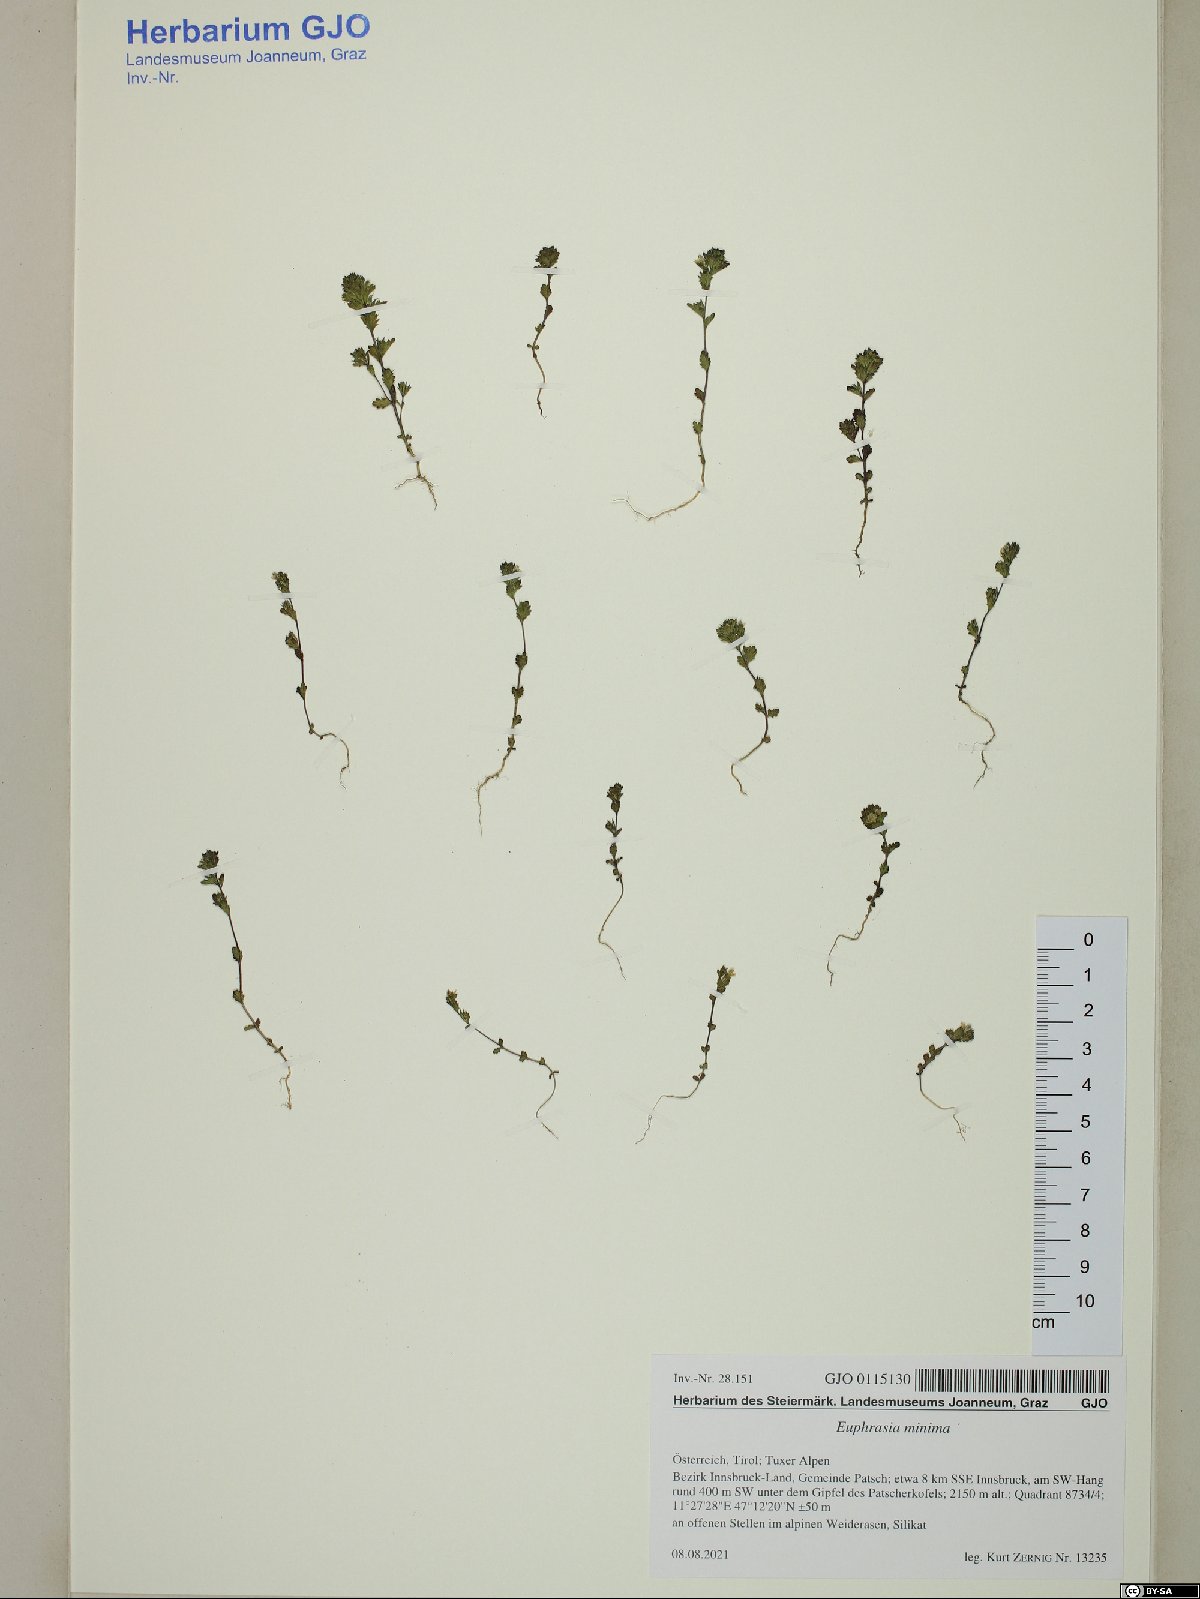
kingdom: Plantae
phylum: Tracheophyta
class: Magnoliopsida
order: Lamiales
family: Orobanchaceae
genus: Euphrasia
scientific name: Euphrasia minima
